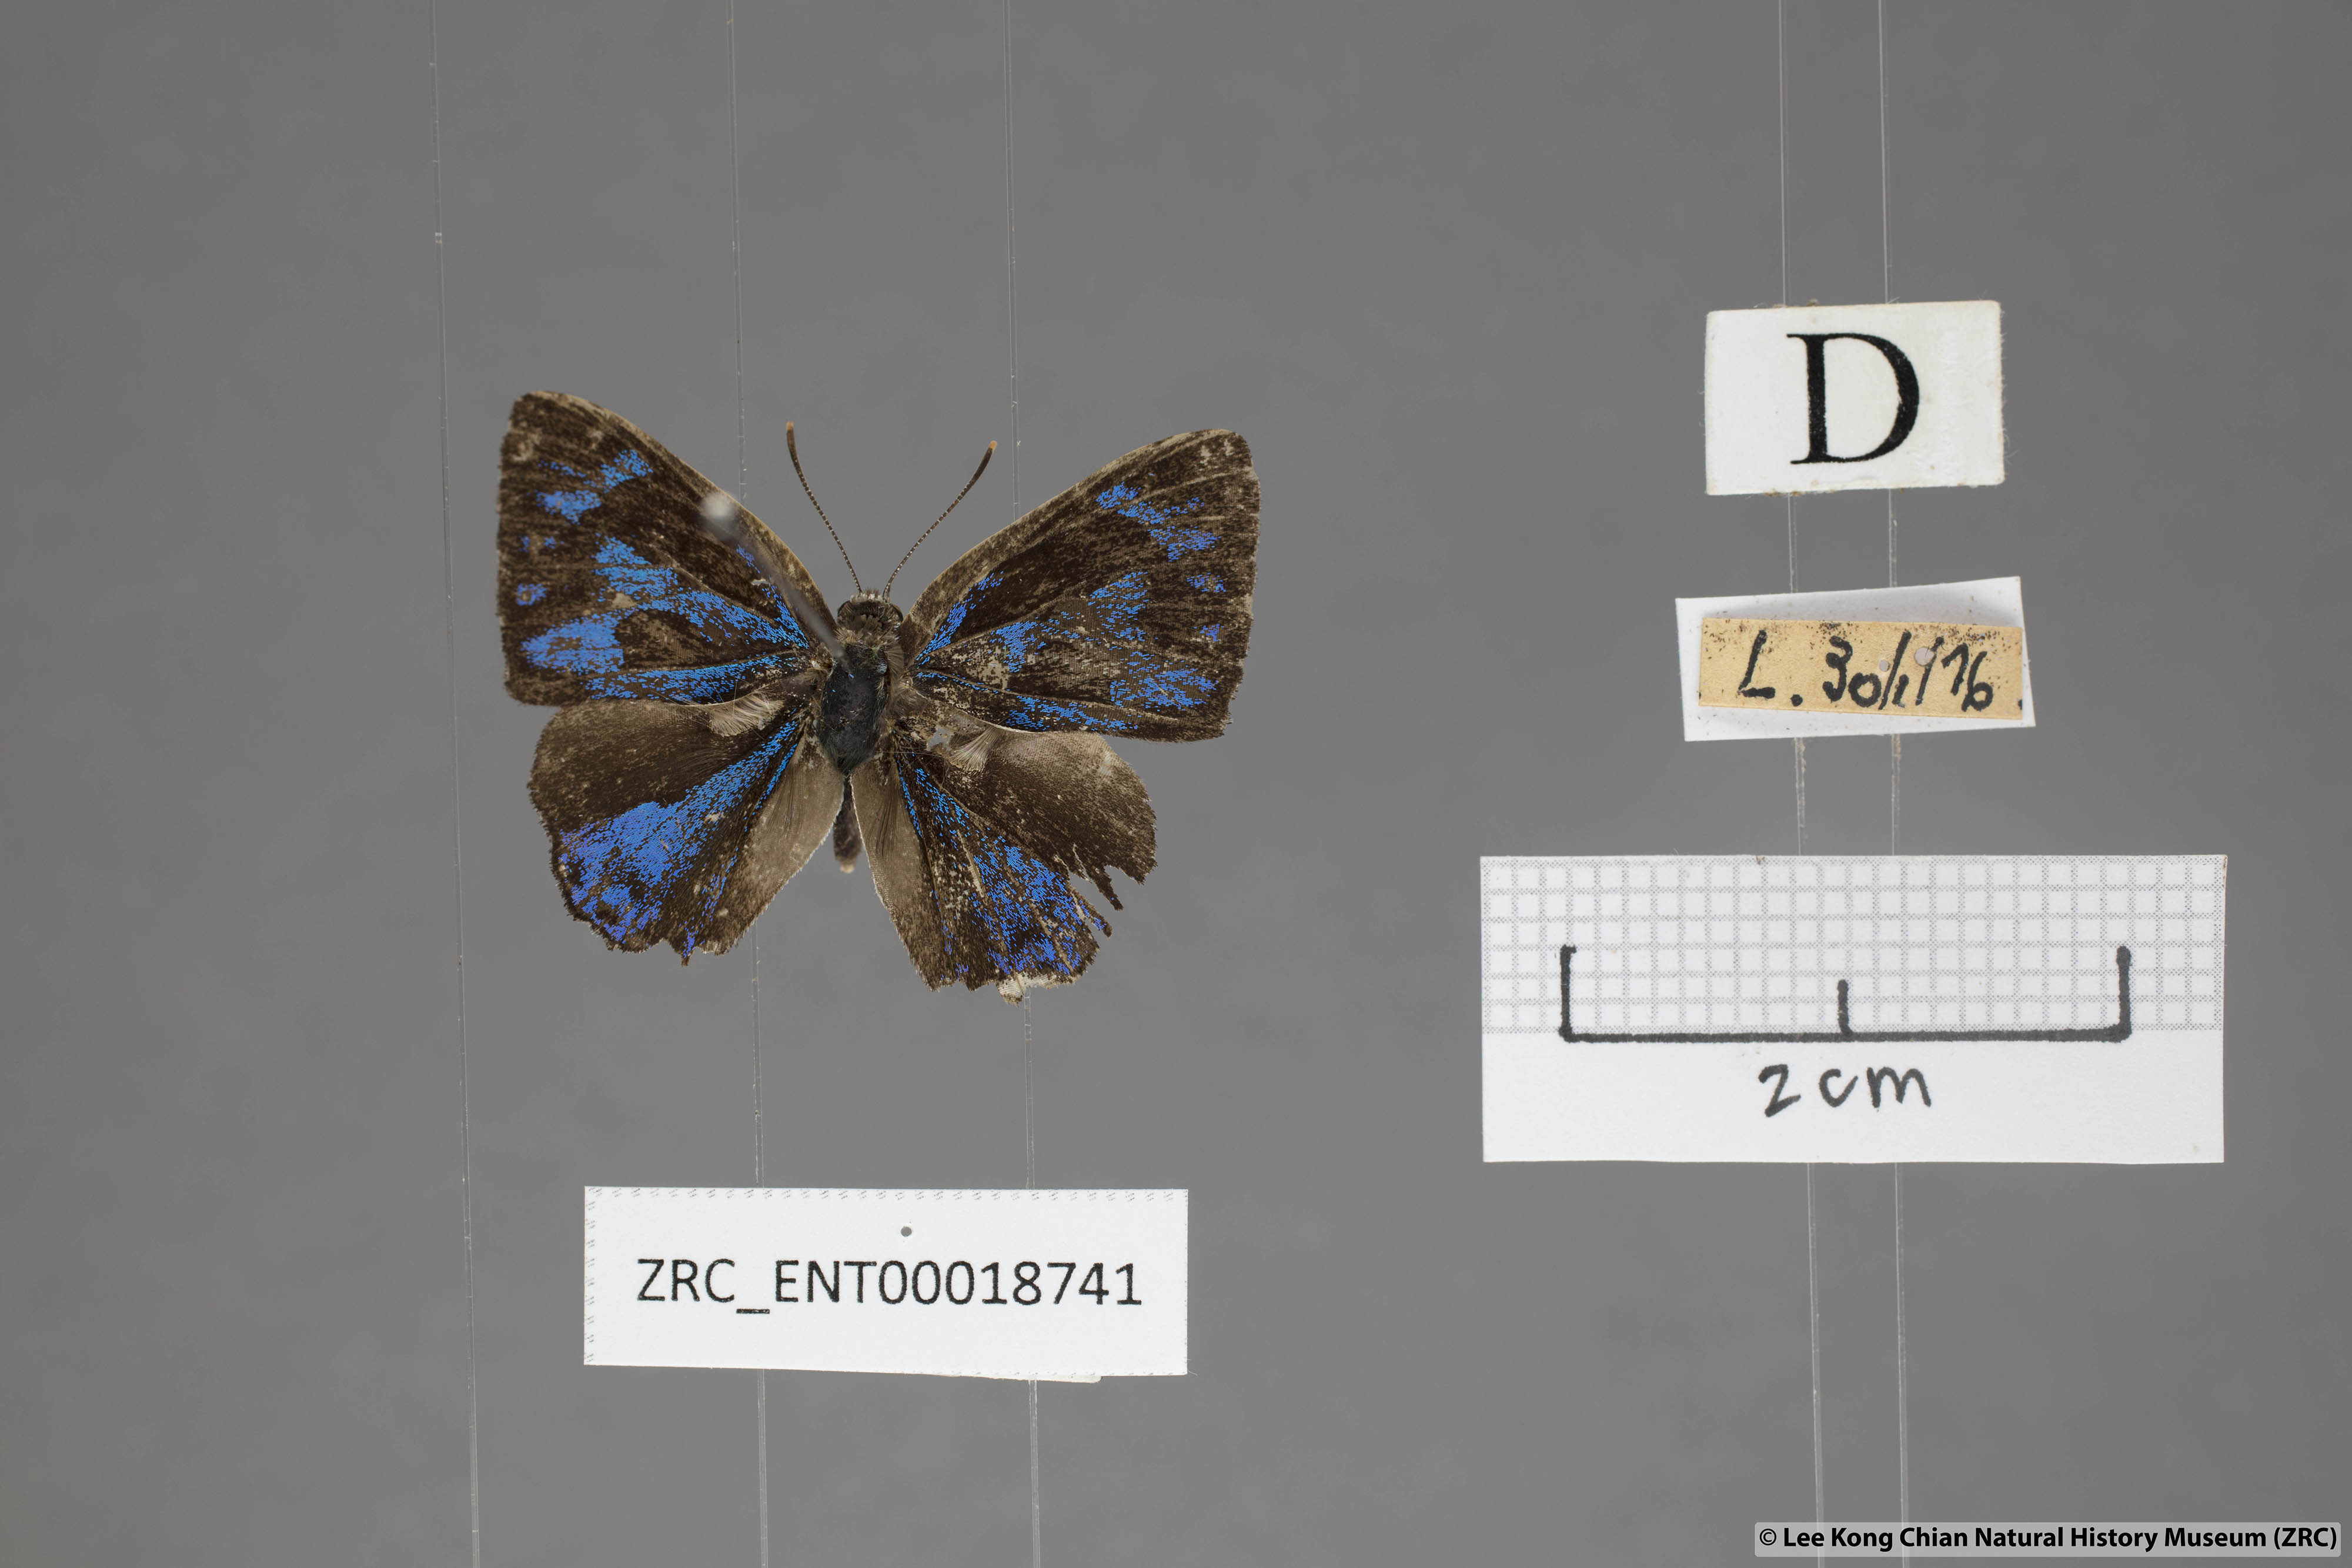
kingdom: Animalia
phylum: Arthropoda
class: Insecta
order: Lepidoptera
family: Lycaenidae
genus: Poritia
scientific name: Poritia erycinoides
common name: Blue gem
